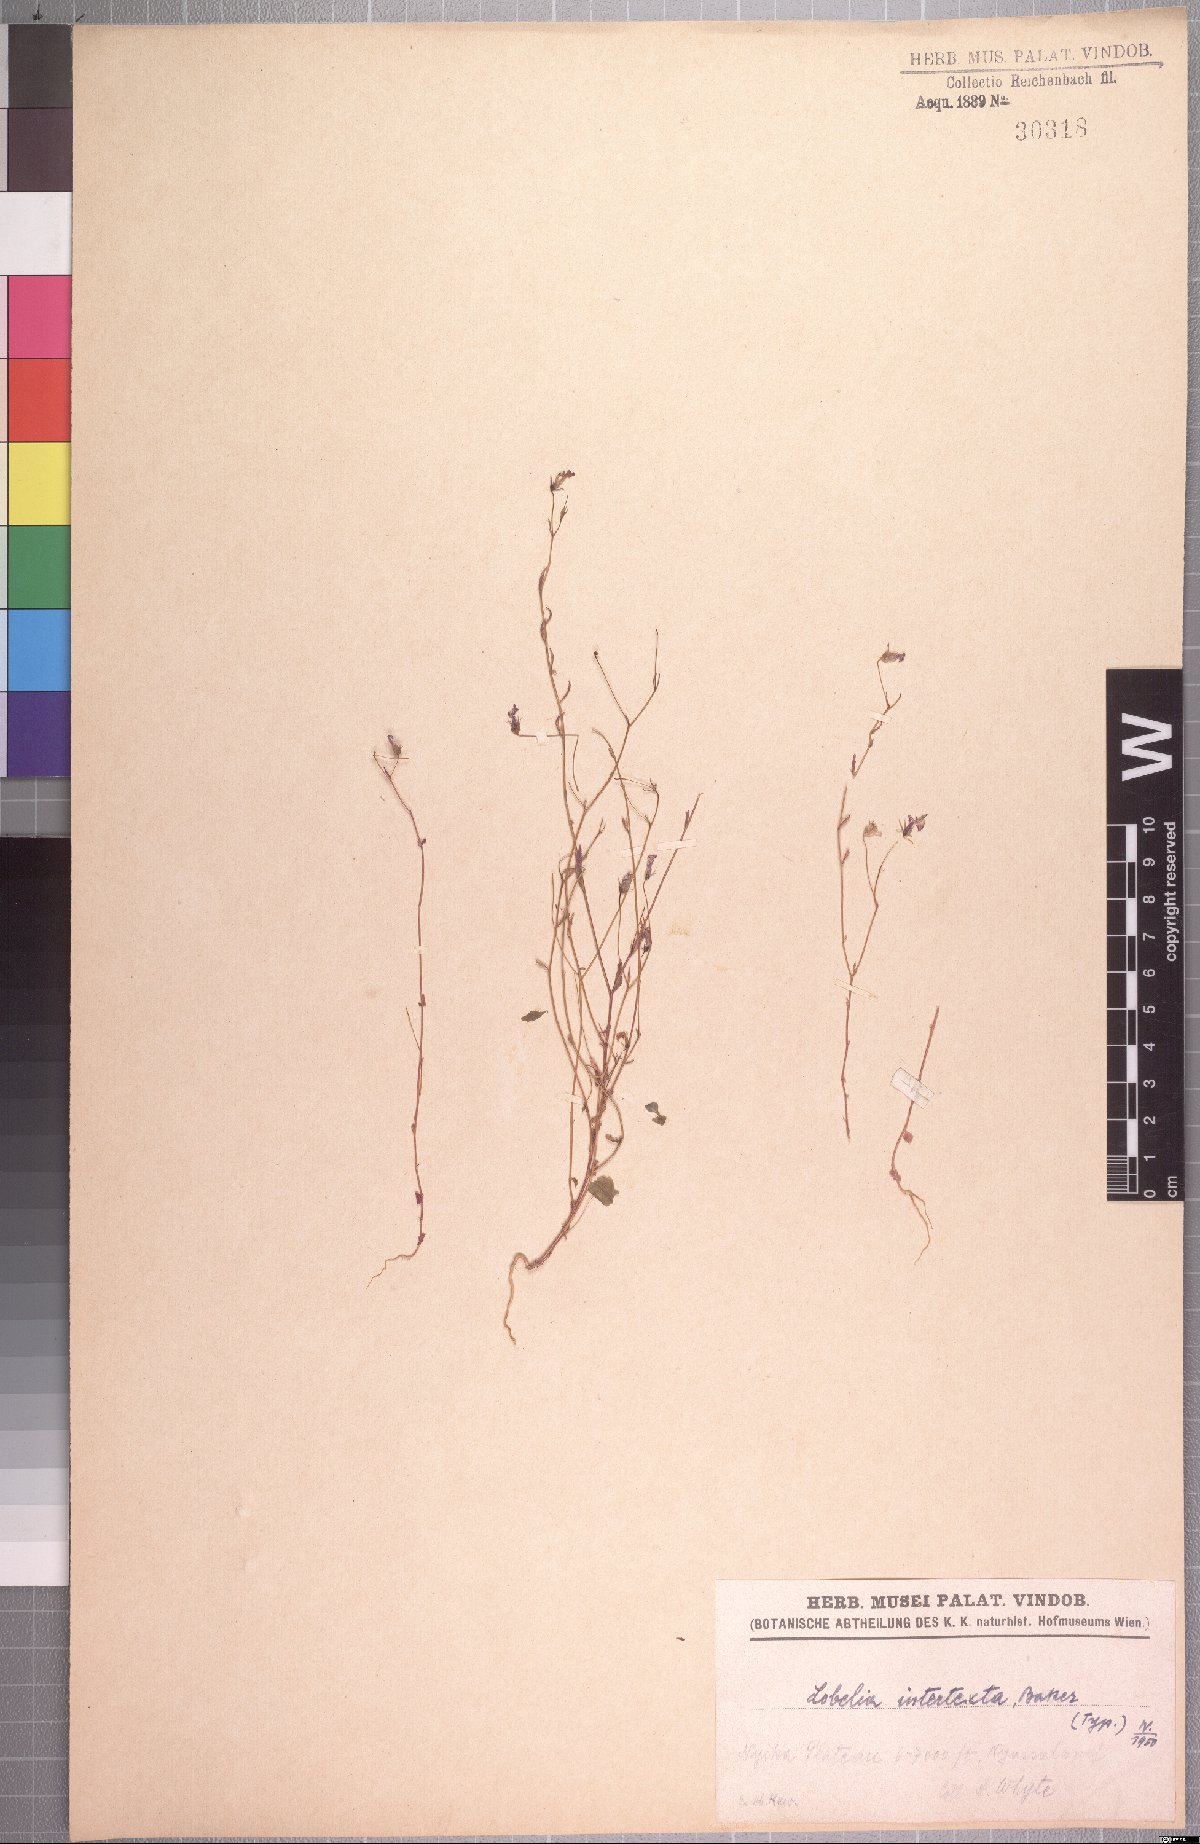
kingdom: Plantae
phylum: Tracheophyta
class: Magnoliopsida
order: Asterales
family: Campanulaceae
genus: Lobelia
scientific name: Lobelia trullifolia
